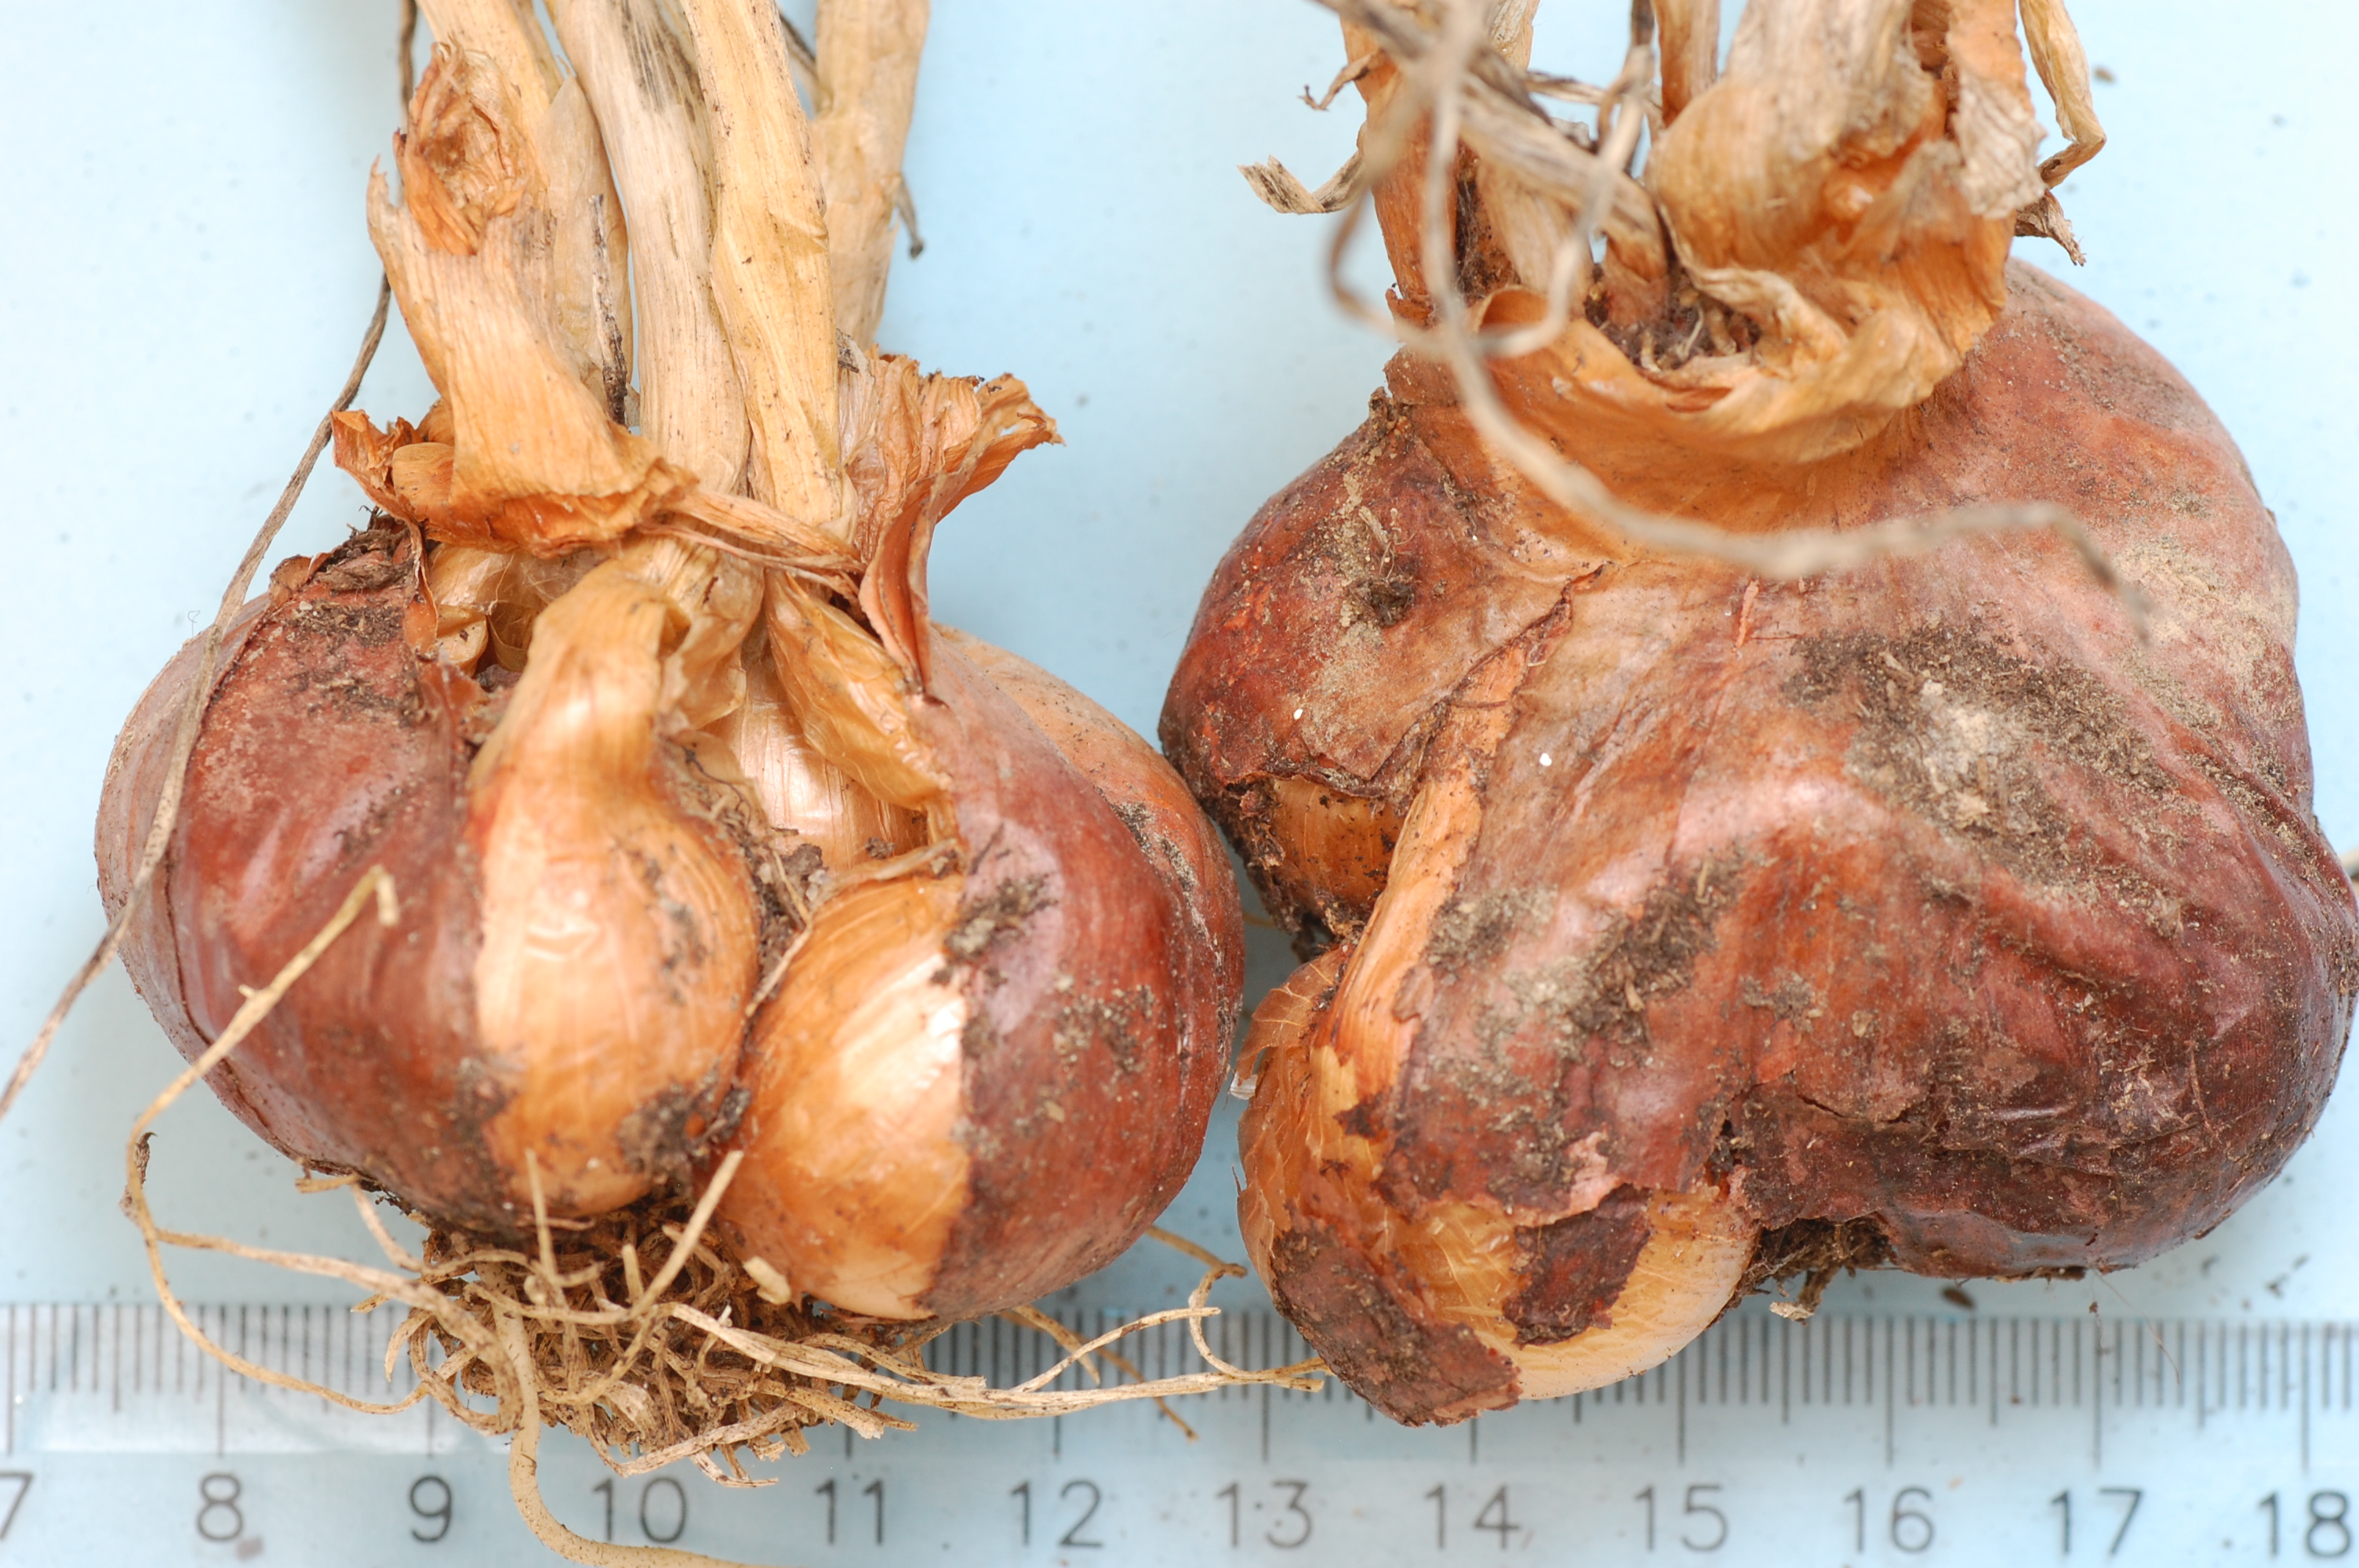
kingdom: Plantae
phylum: Tracheophyta
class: Liliopsida
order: Asparagales
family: Amaryllidaceae
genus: Allium
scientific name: Allium cepa
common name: Onion
